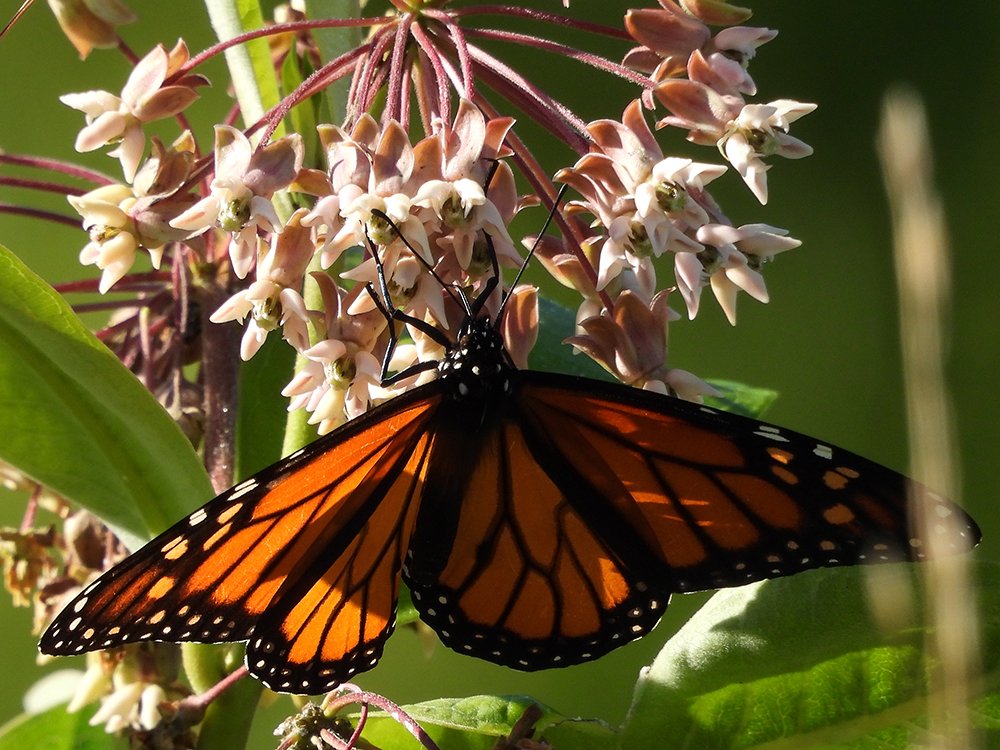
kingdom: Animalia
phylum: Arthropoda
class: Insecta
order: Lepidoptera
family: Nymphalidae
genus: Danaus
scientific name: Danaus plexippus
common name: Monarch
